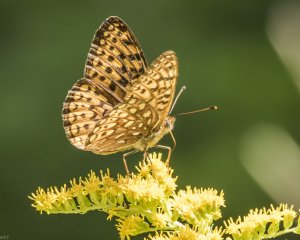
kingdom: Animalia
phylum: Arthropoda
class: Insecta
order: Lepidoptera
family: Nymphalidae
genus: Speyeria
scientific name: Speyeria atlantis
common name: Atlantis Fritillary
